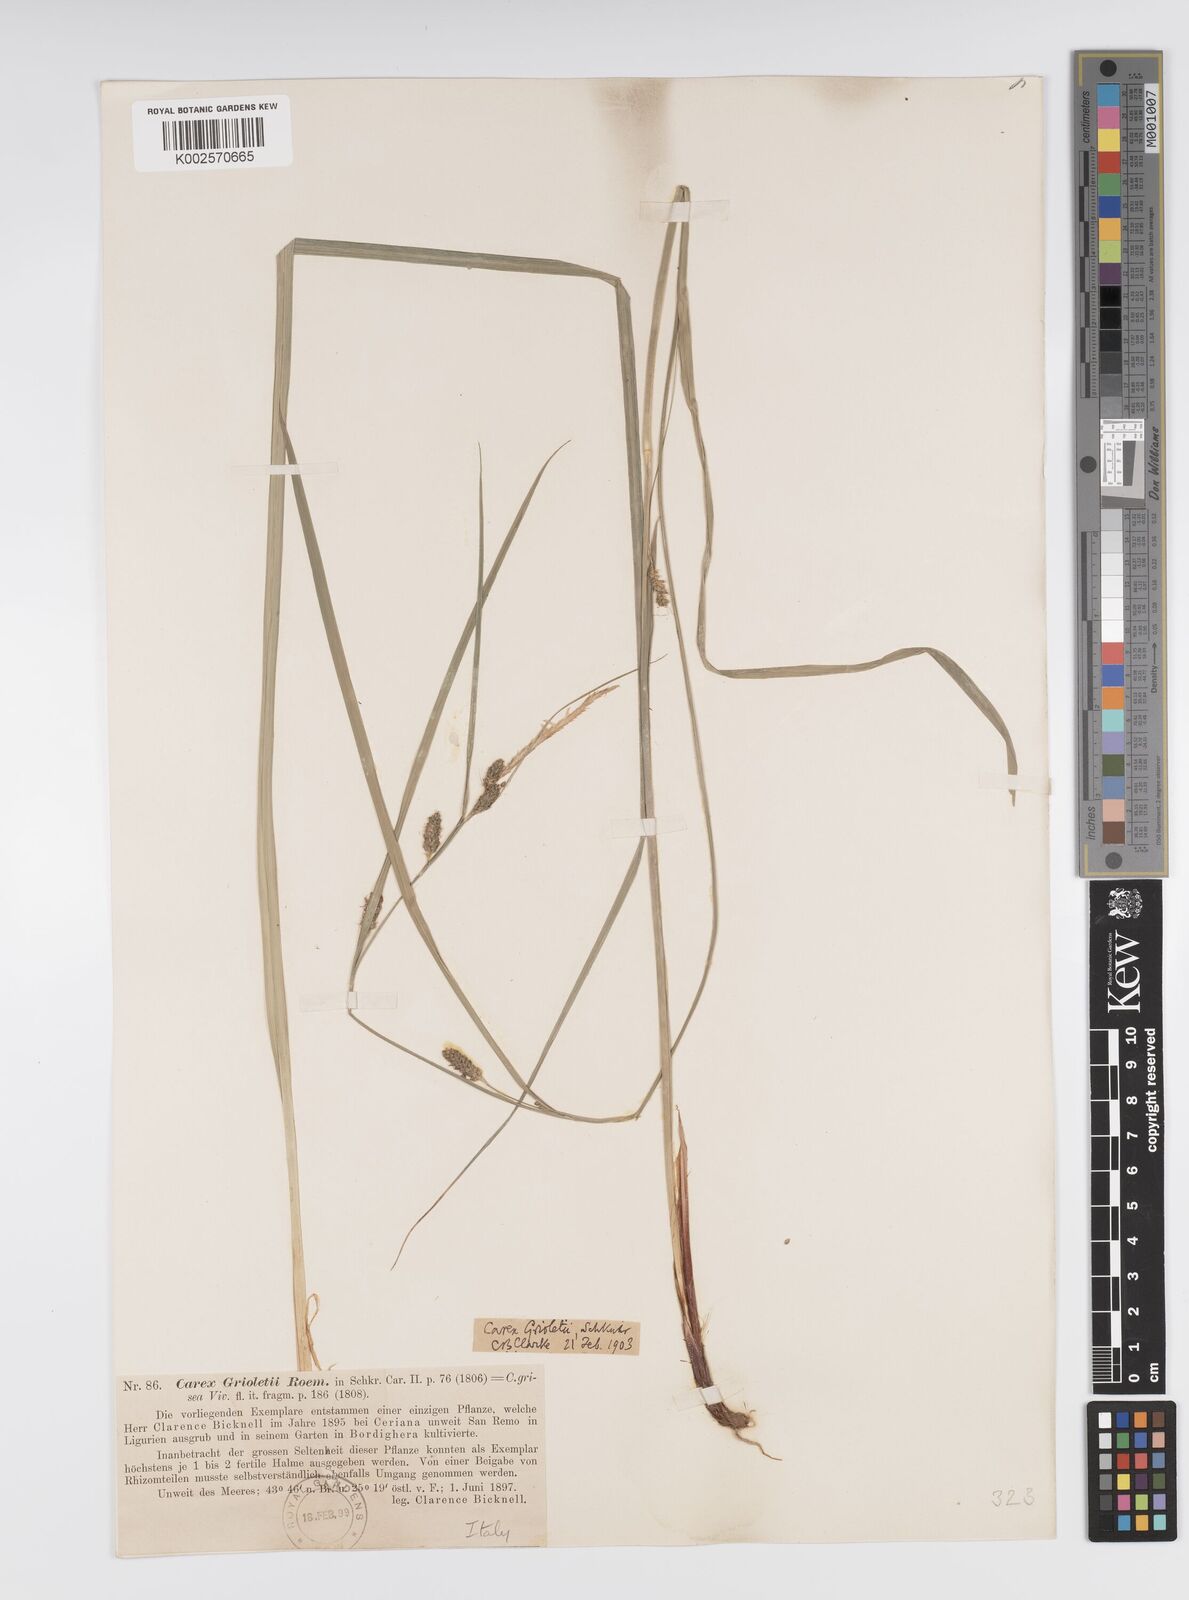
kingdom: Plantae
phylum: Tracheophyta
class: Liliopsida
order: Poales
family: Cyperaceae
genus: Carex
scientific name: Carex grioletii
